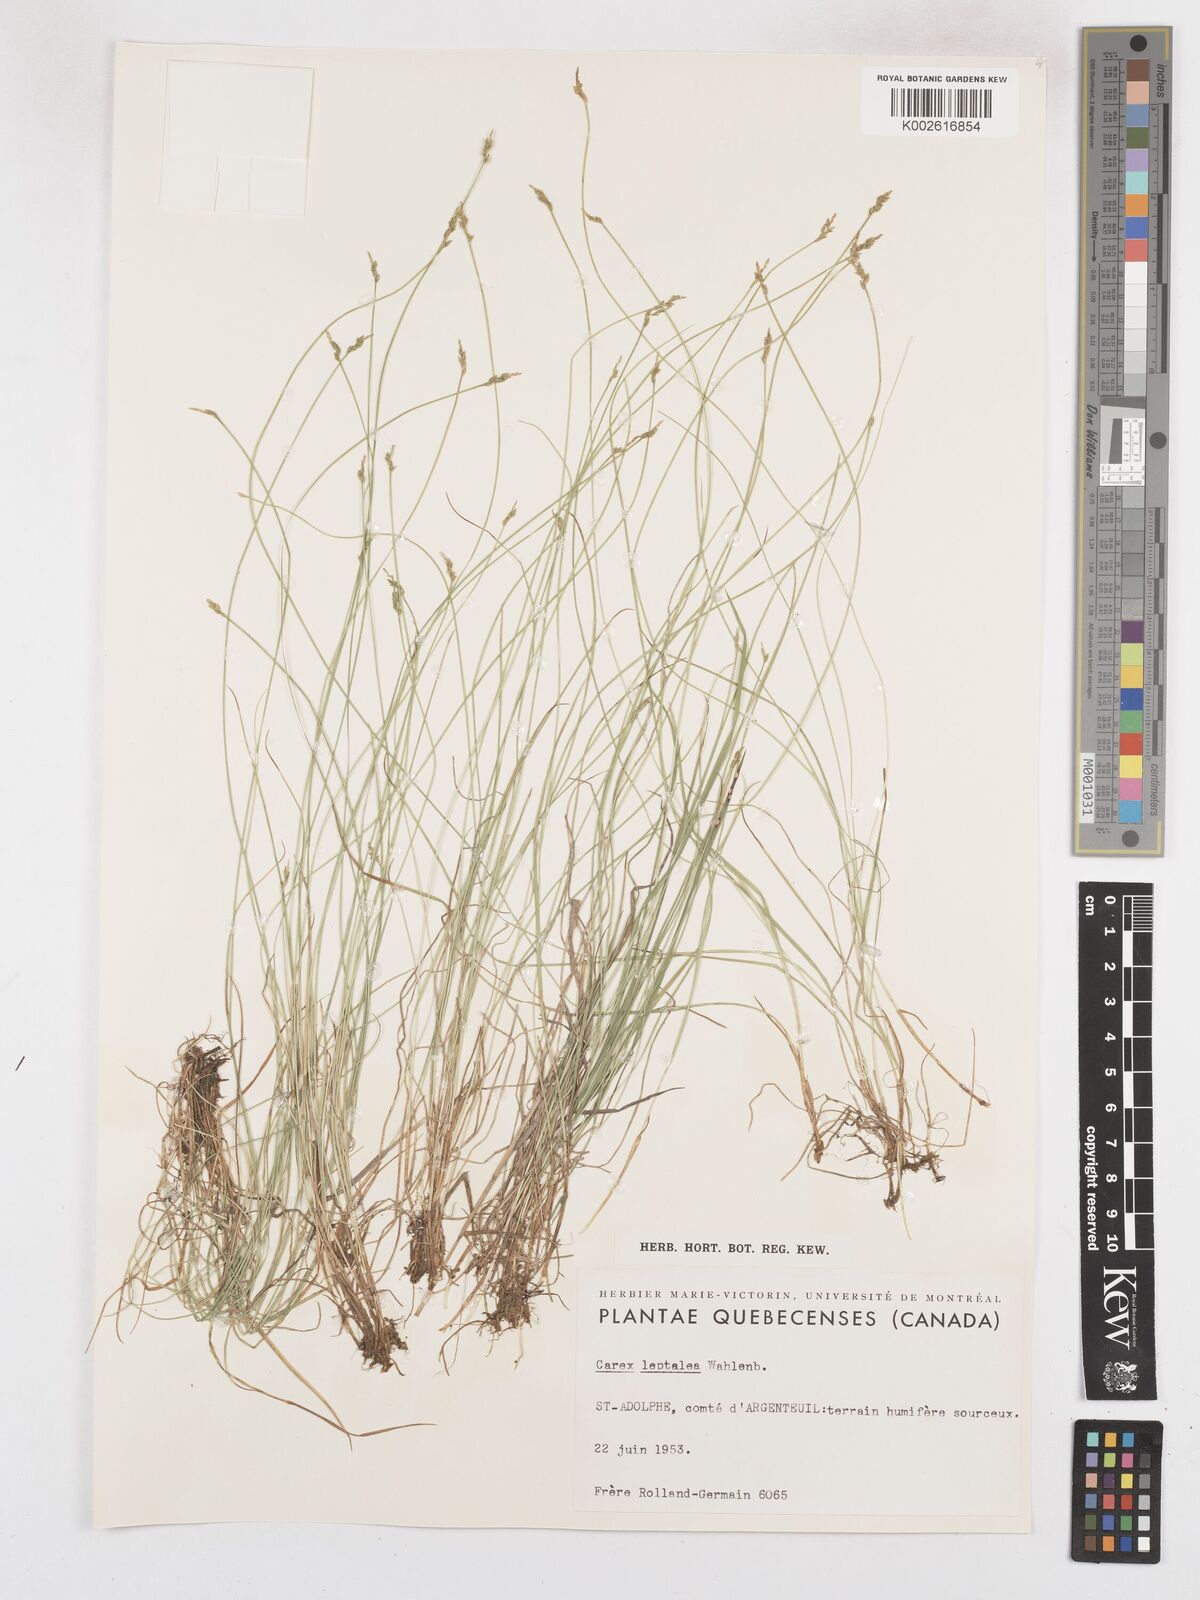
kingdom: Plantae
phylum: Tracheophyta
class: Liliopsida
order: Poales
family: Cyperaceae
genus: Carex
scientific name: Carex leptalea
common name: Bristly-stalked sedge
